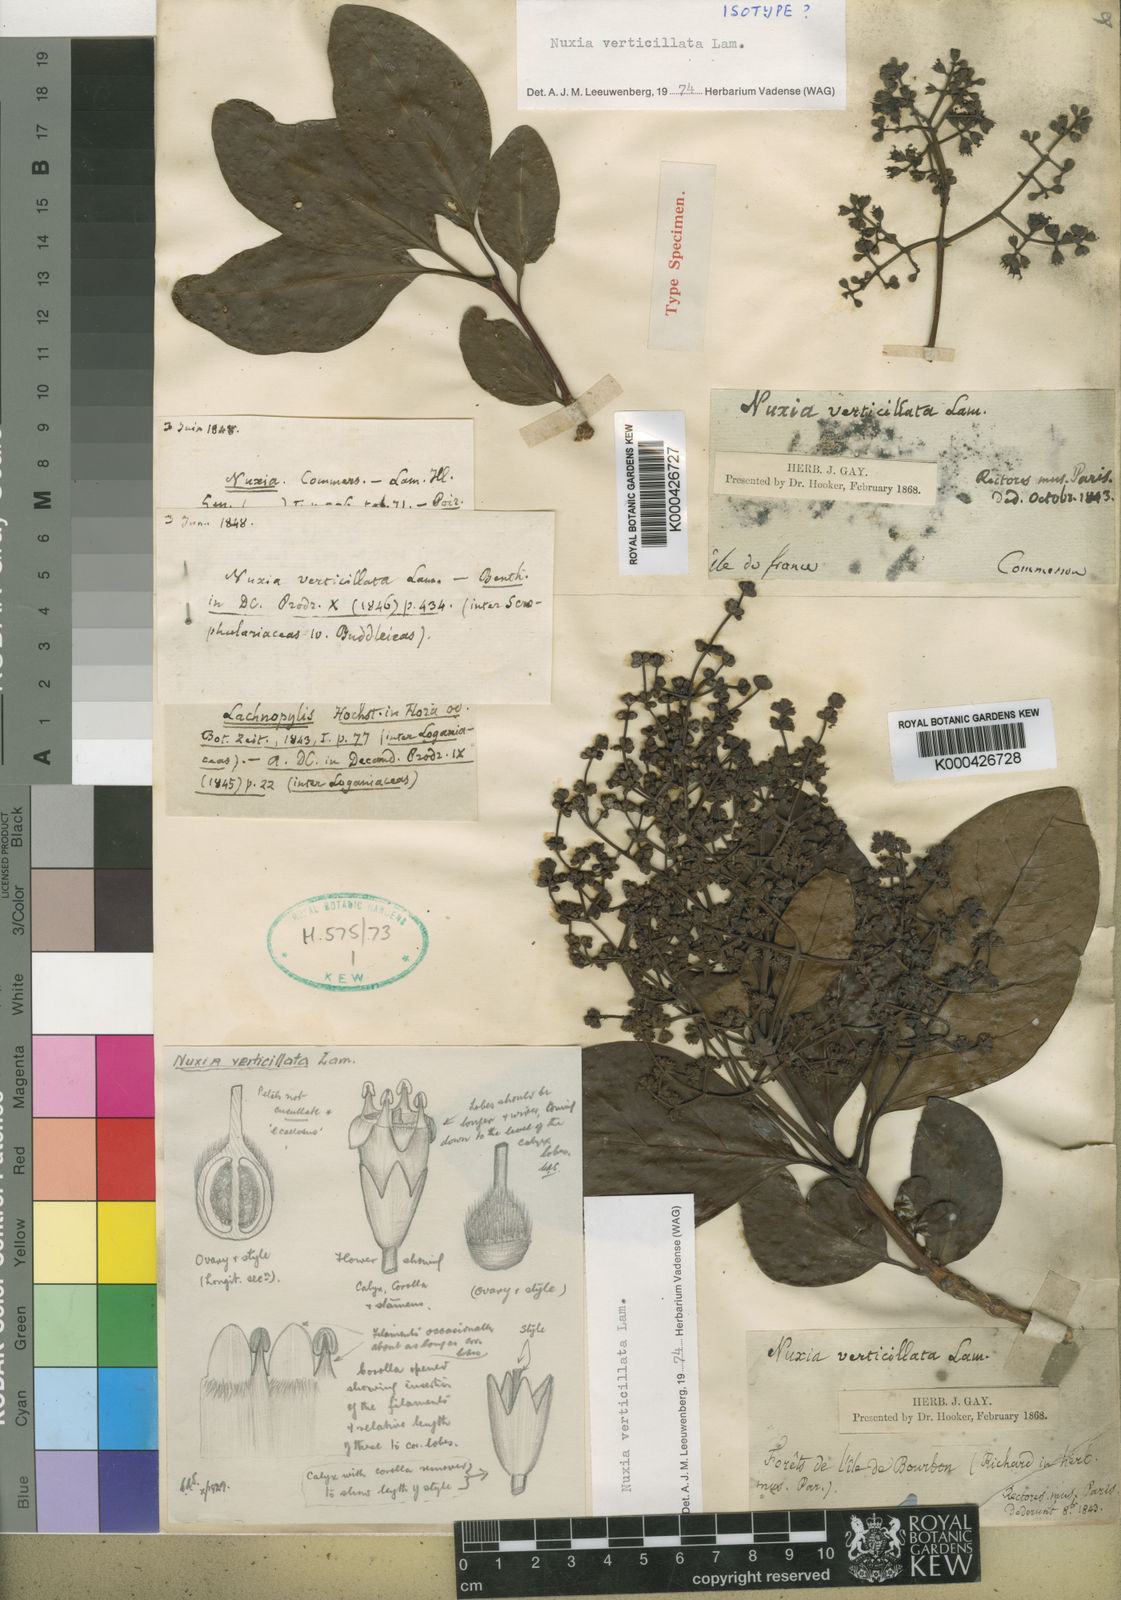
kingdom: Plantae
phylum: Tracheophyta
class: Magnoliopsida
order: Lamiales
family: Stilbaceae
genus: Nuxia
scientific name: Nuxia verticillata
